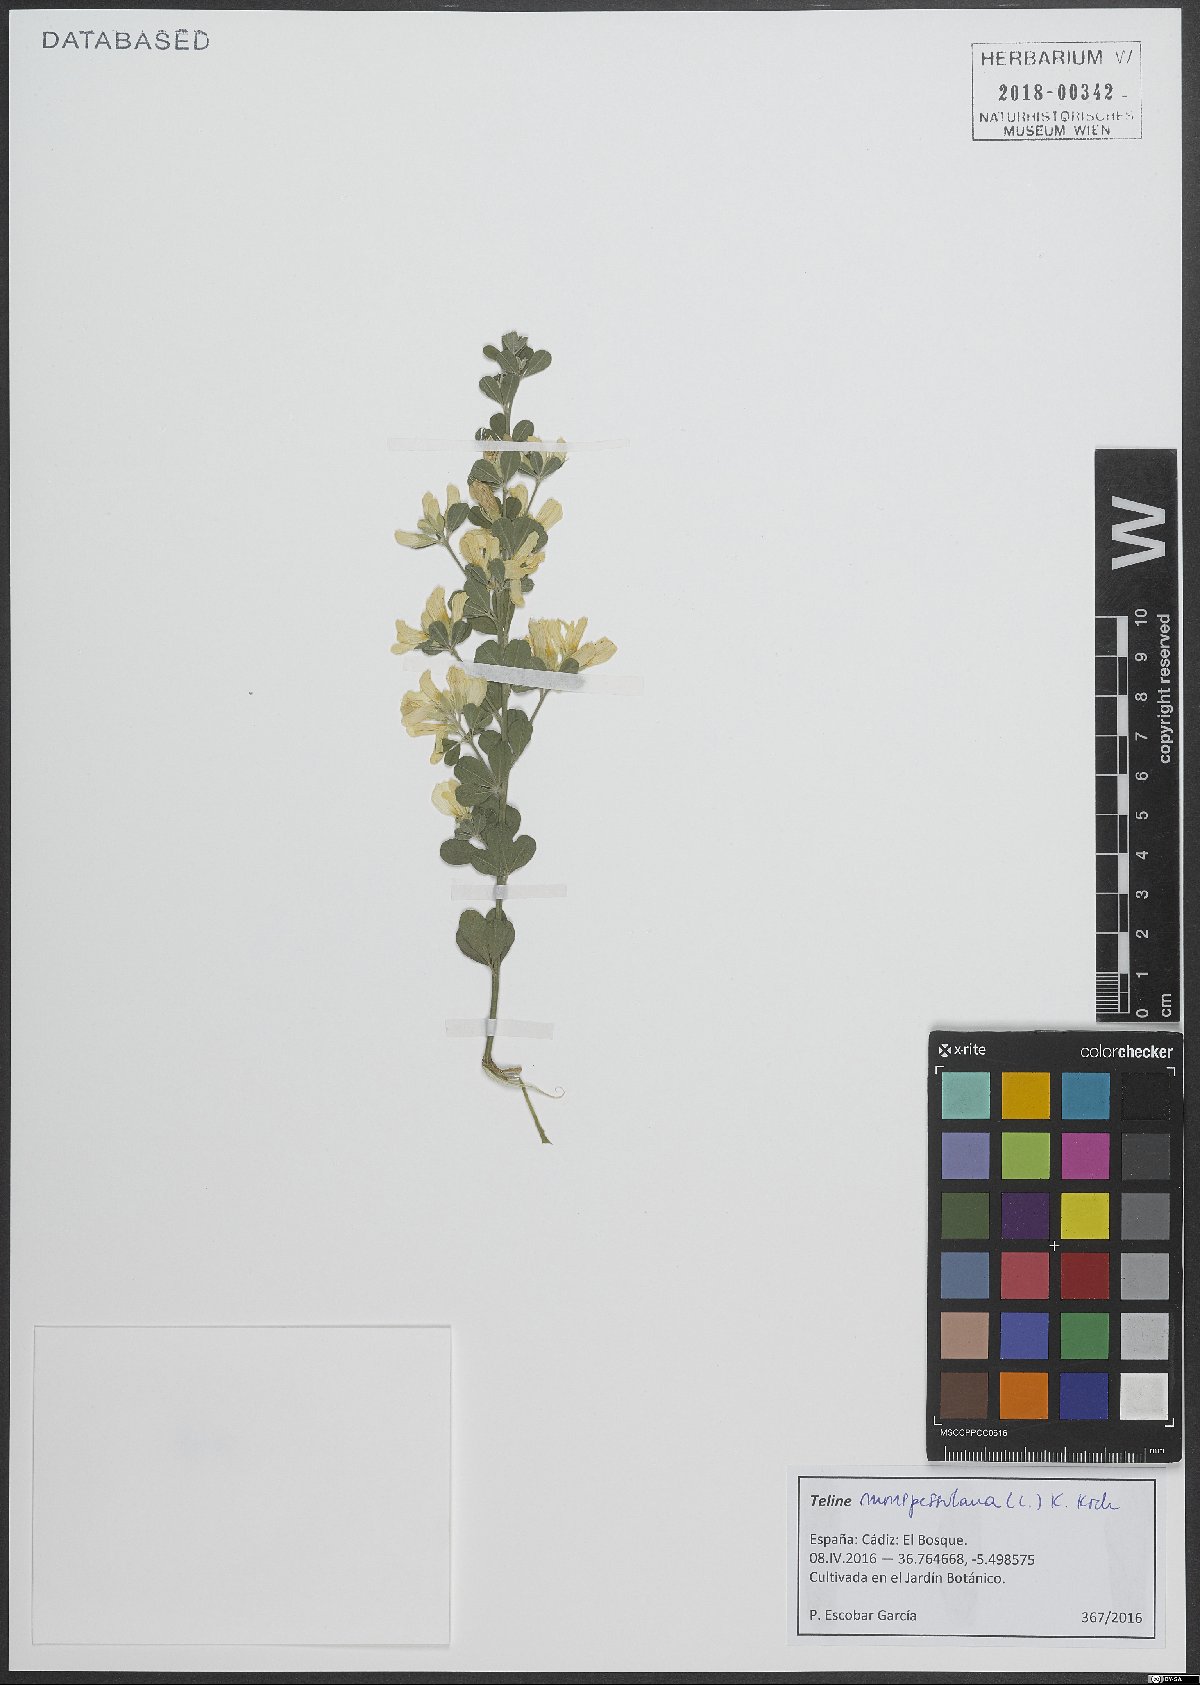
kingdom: Plantae
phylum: Tracheophyta
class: Magnoliopsida
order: Fabales
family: Fabaceae
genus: Genista
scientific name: Genista monspessulana
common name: Montpellier broom
